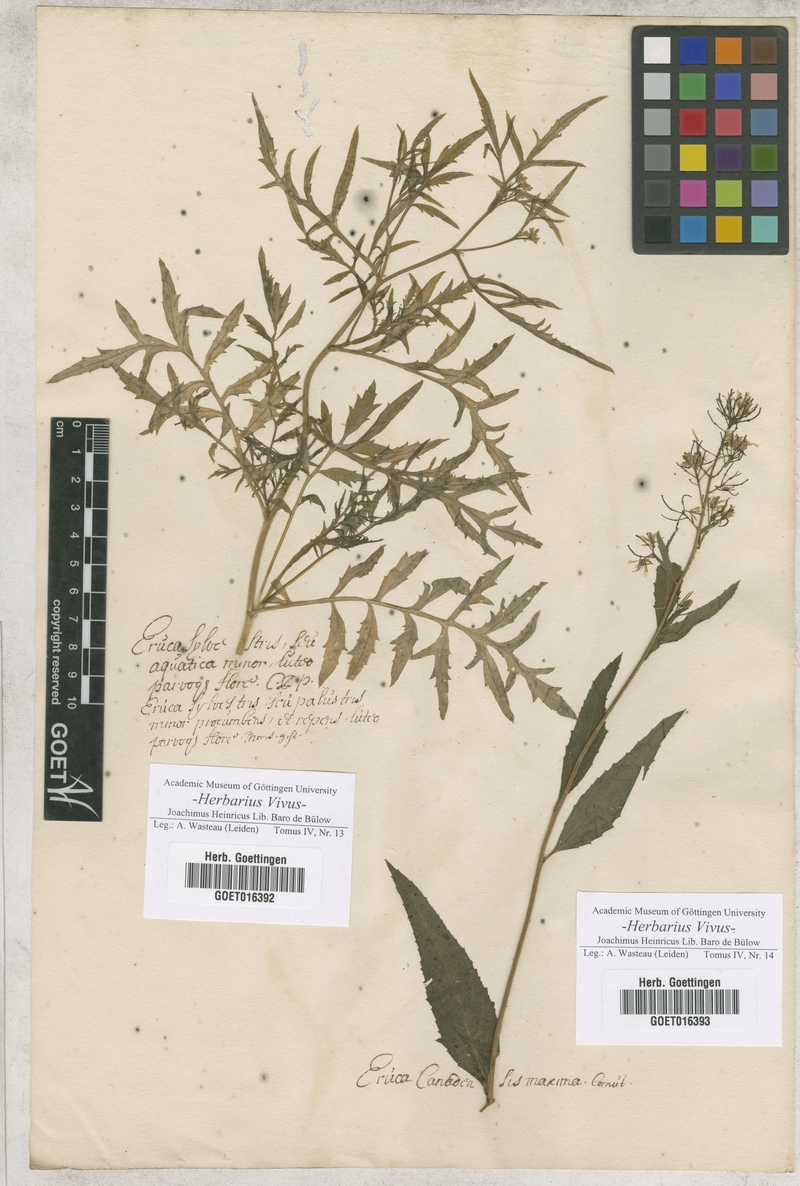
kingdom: Plantae
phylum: Tracheophyta
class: Magnoliopsida
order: Brassicales
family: Brassicaceae
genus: Rorippa
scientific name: Rorippa sylvestris
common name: Creeping yellowcress
